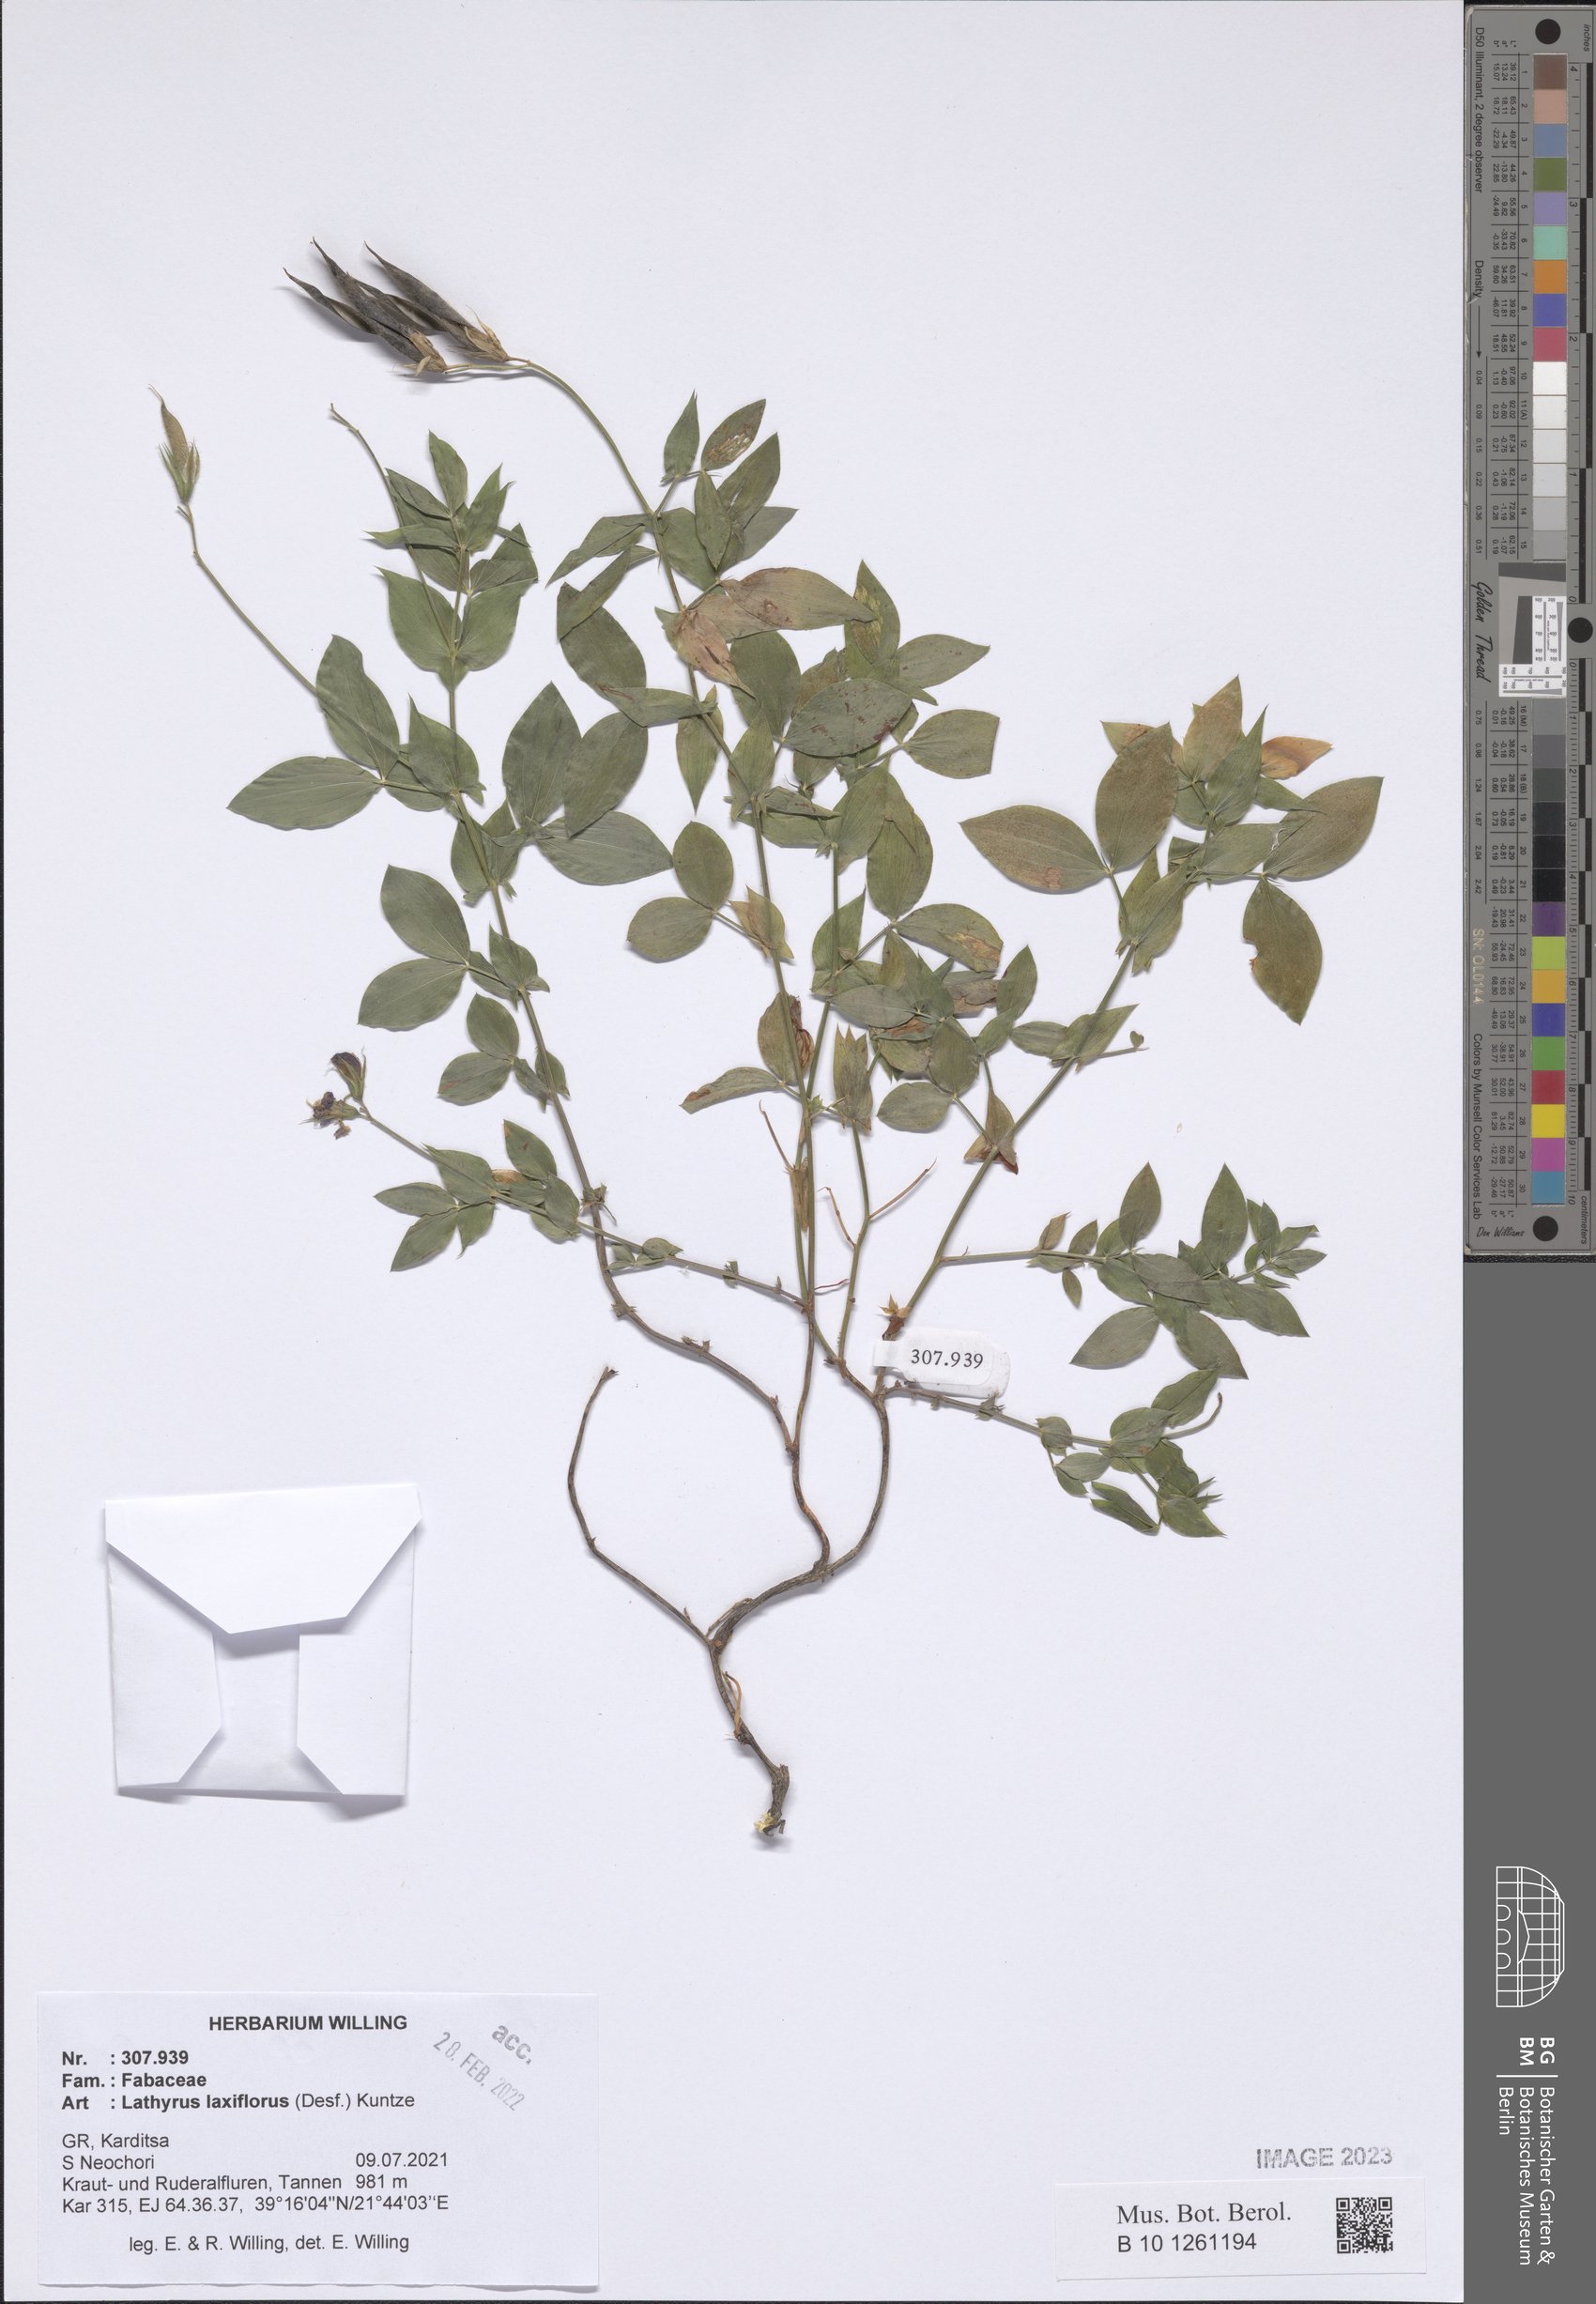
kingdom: Plantae
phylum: Tracheophyta
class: Magnoliopsida
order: Fabales
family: Fabaceae
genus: Lathyrus
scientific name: Lathyrus laxiflorus
